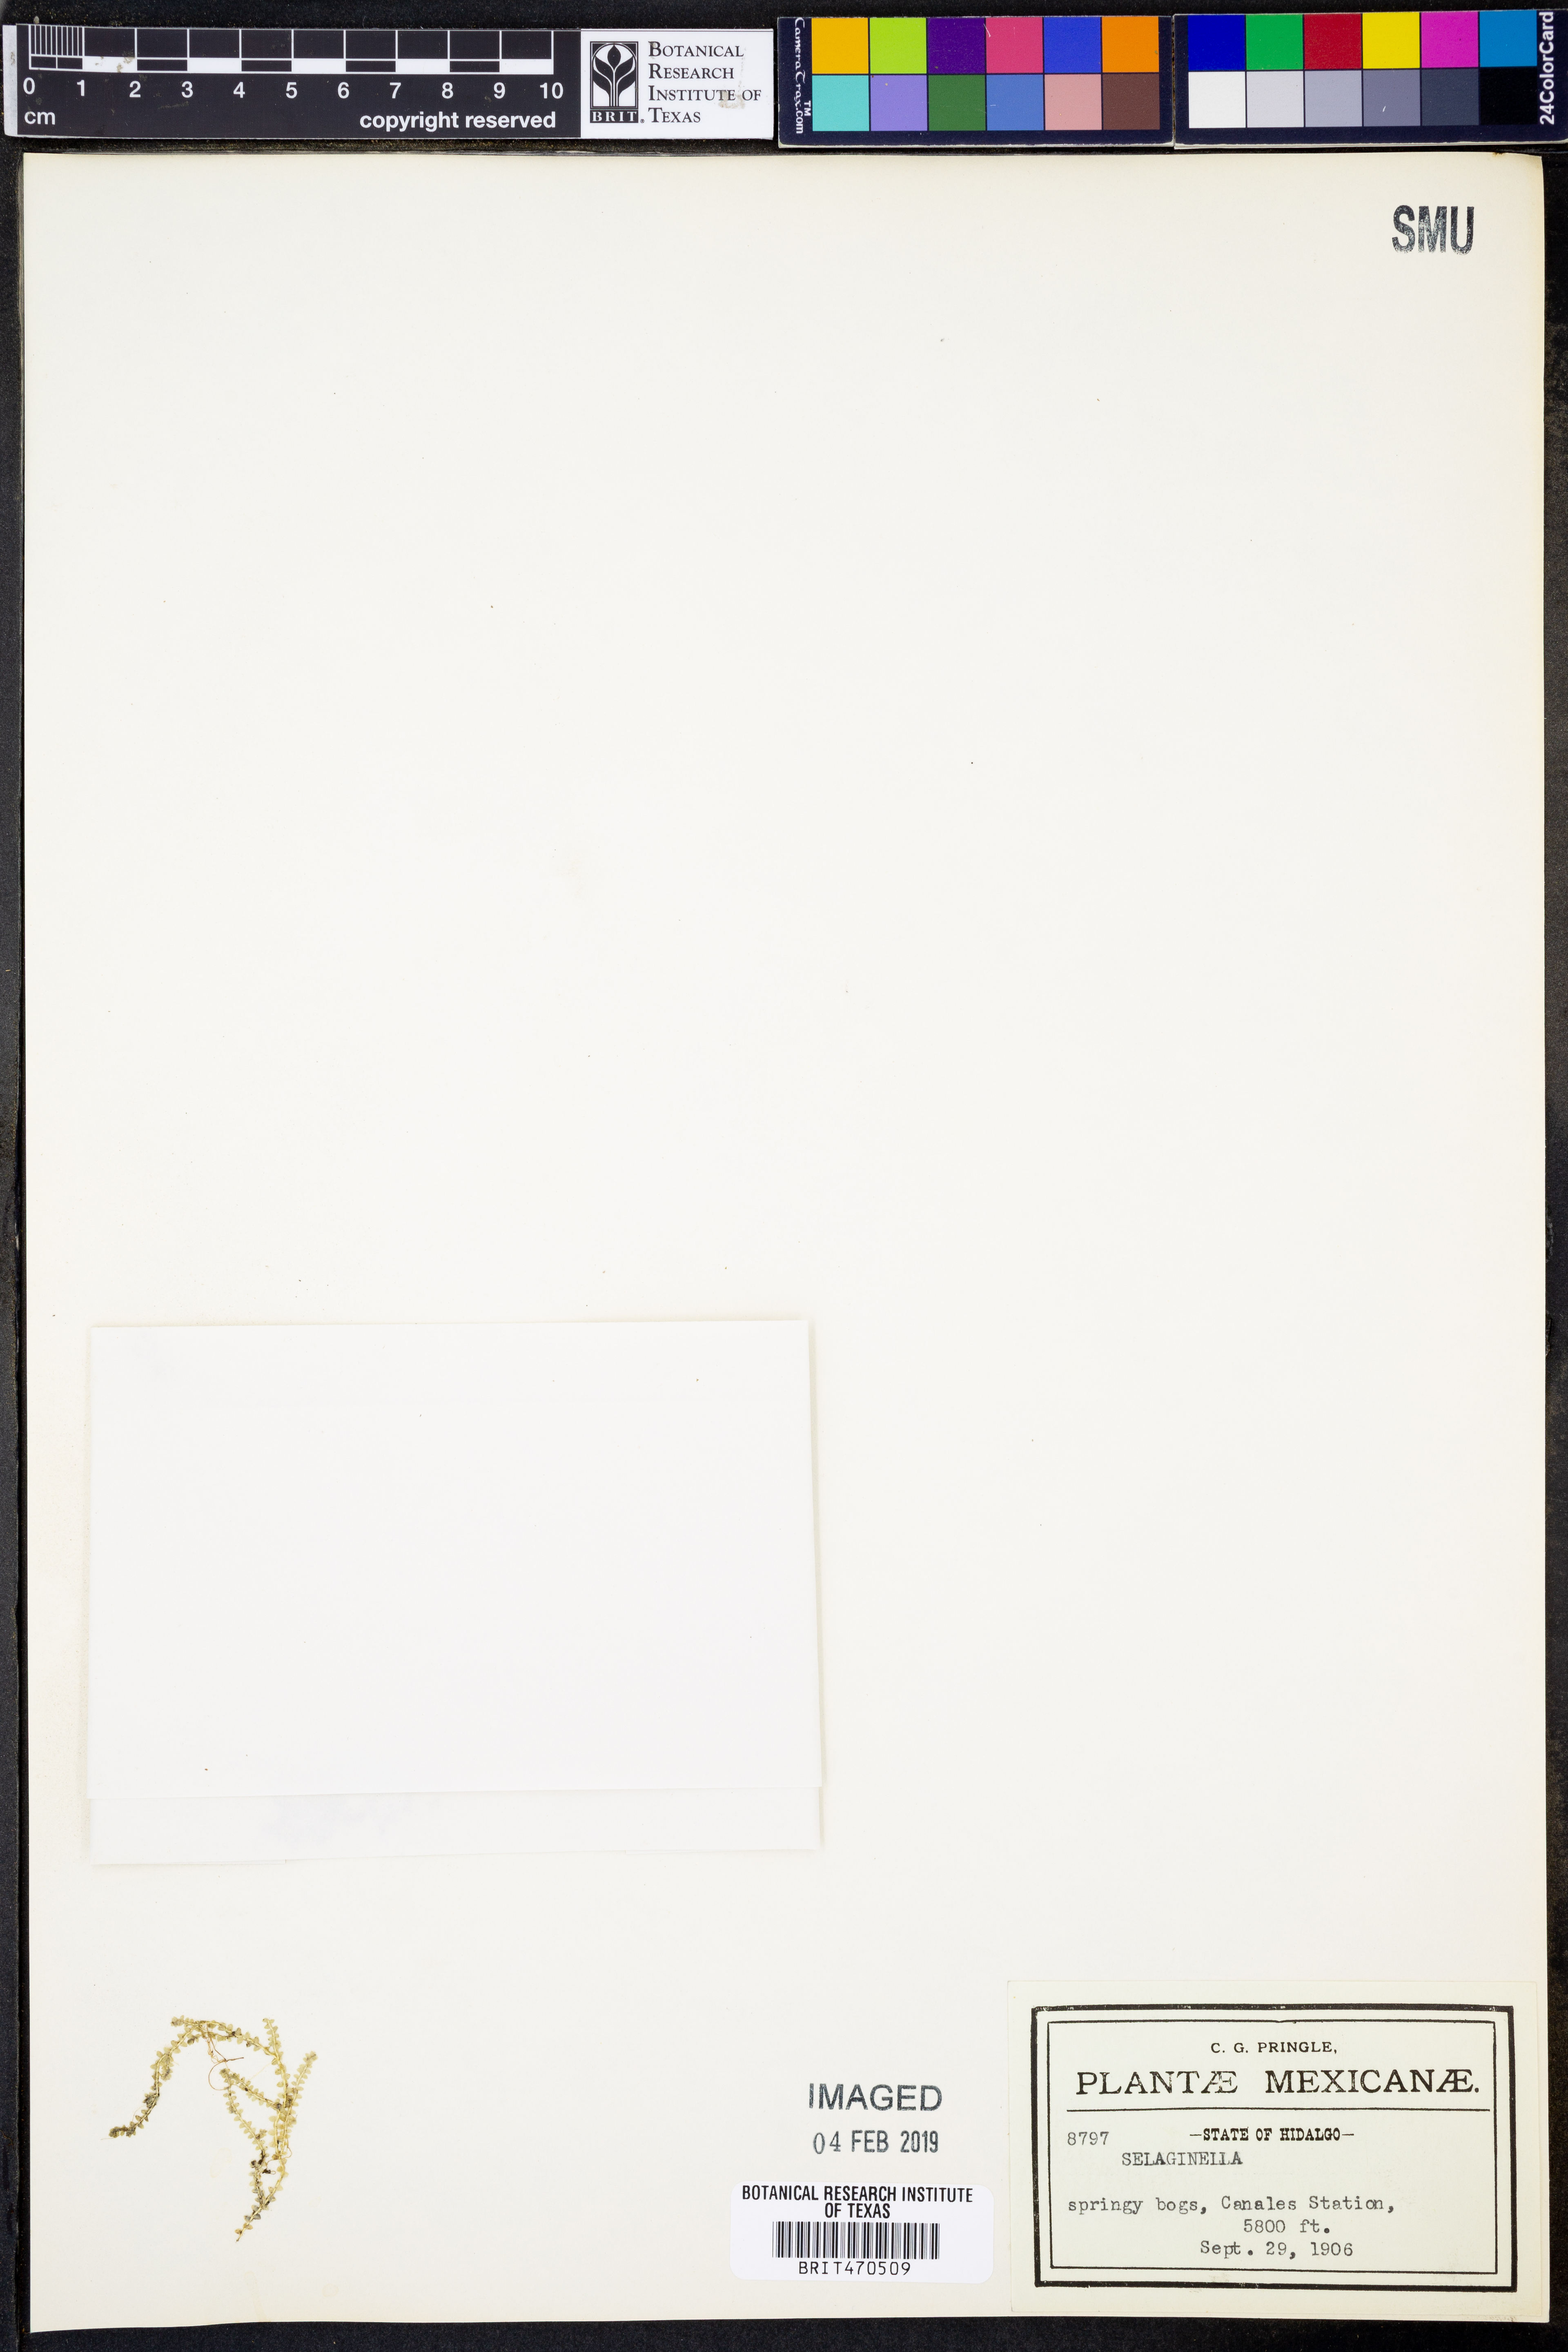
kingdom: Plantae
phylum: Tracheophyta
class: Lycopodiopsida
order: Selaginellales
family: Selaginellaceae
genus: Selaginella
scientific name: Selaginella
